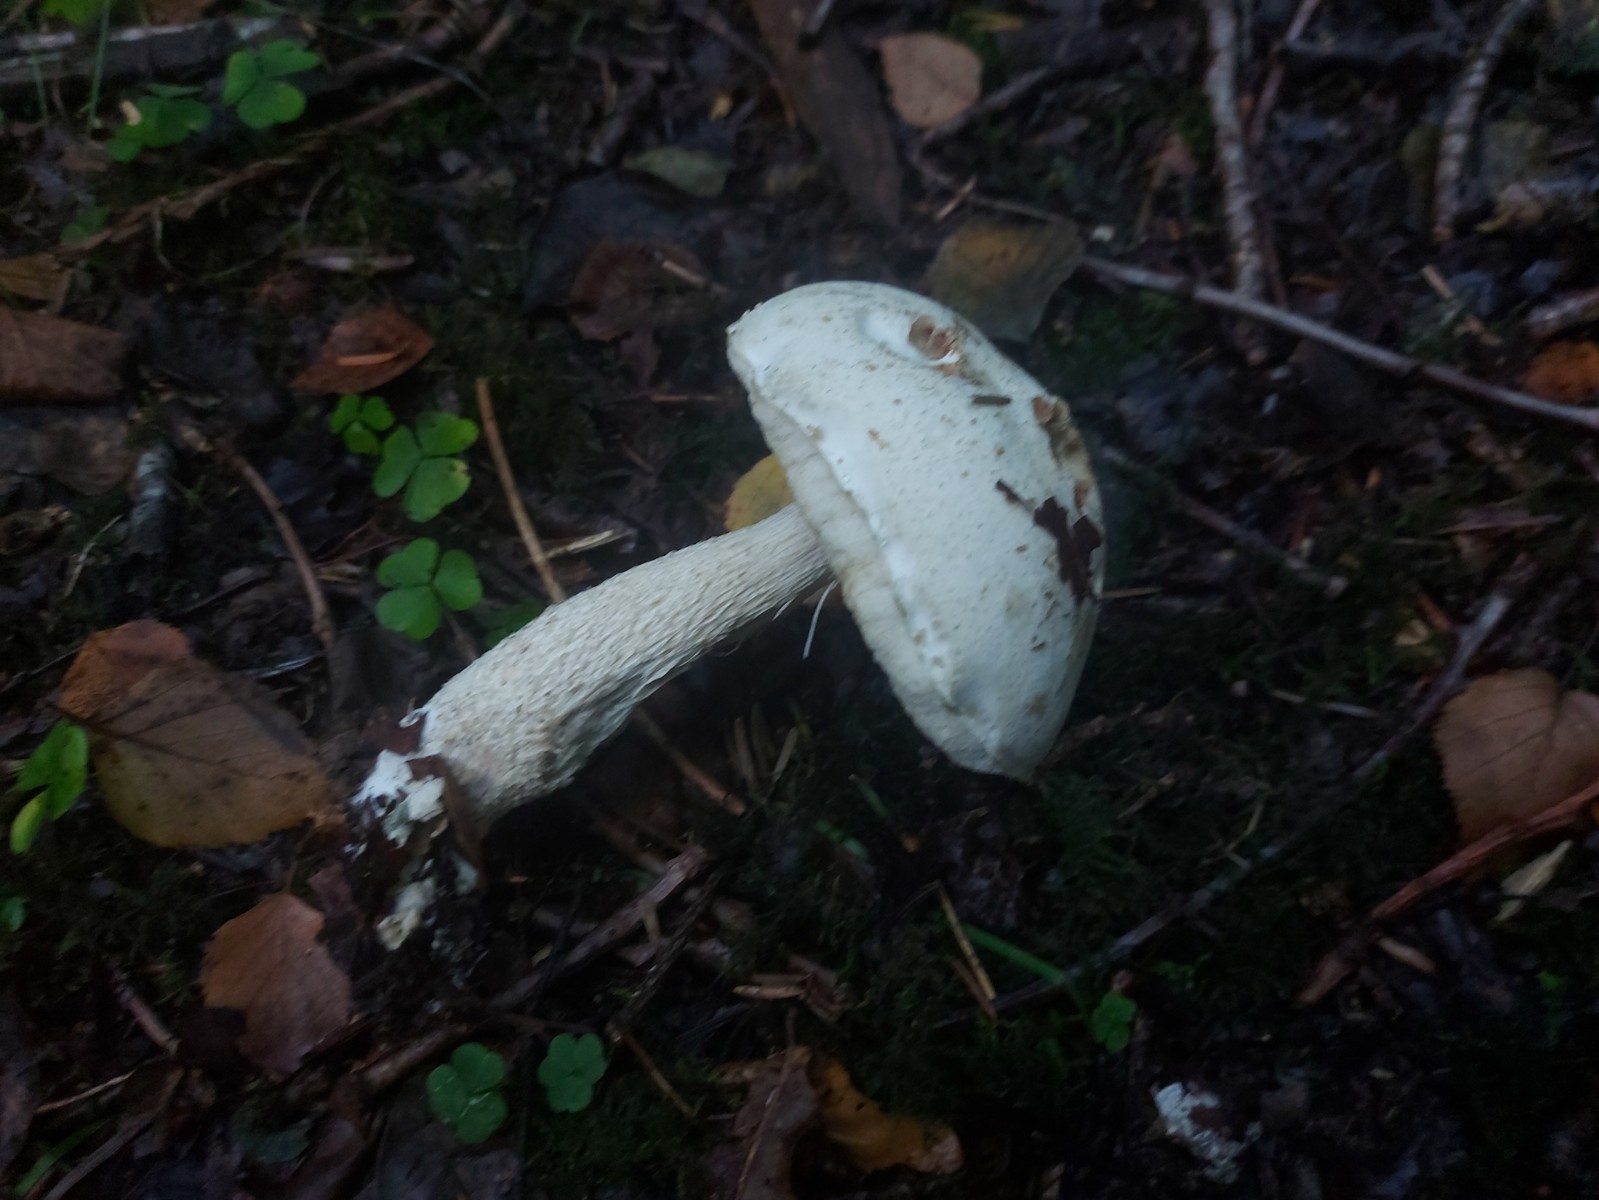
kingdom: Fungi
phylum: Basidiomycota
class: Agaricomycetes
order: Boletales
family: Boletaceae
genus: Leccinum
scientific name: Leccinum scabrum
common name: hvid skælrørhat
